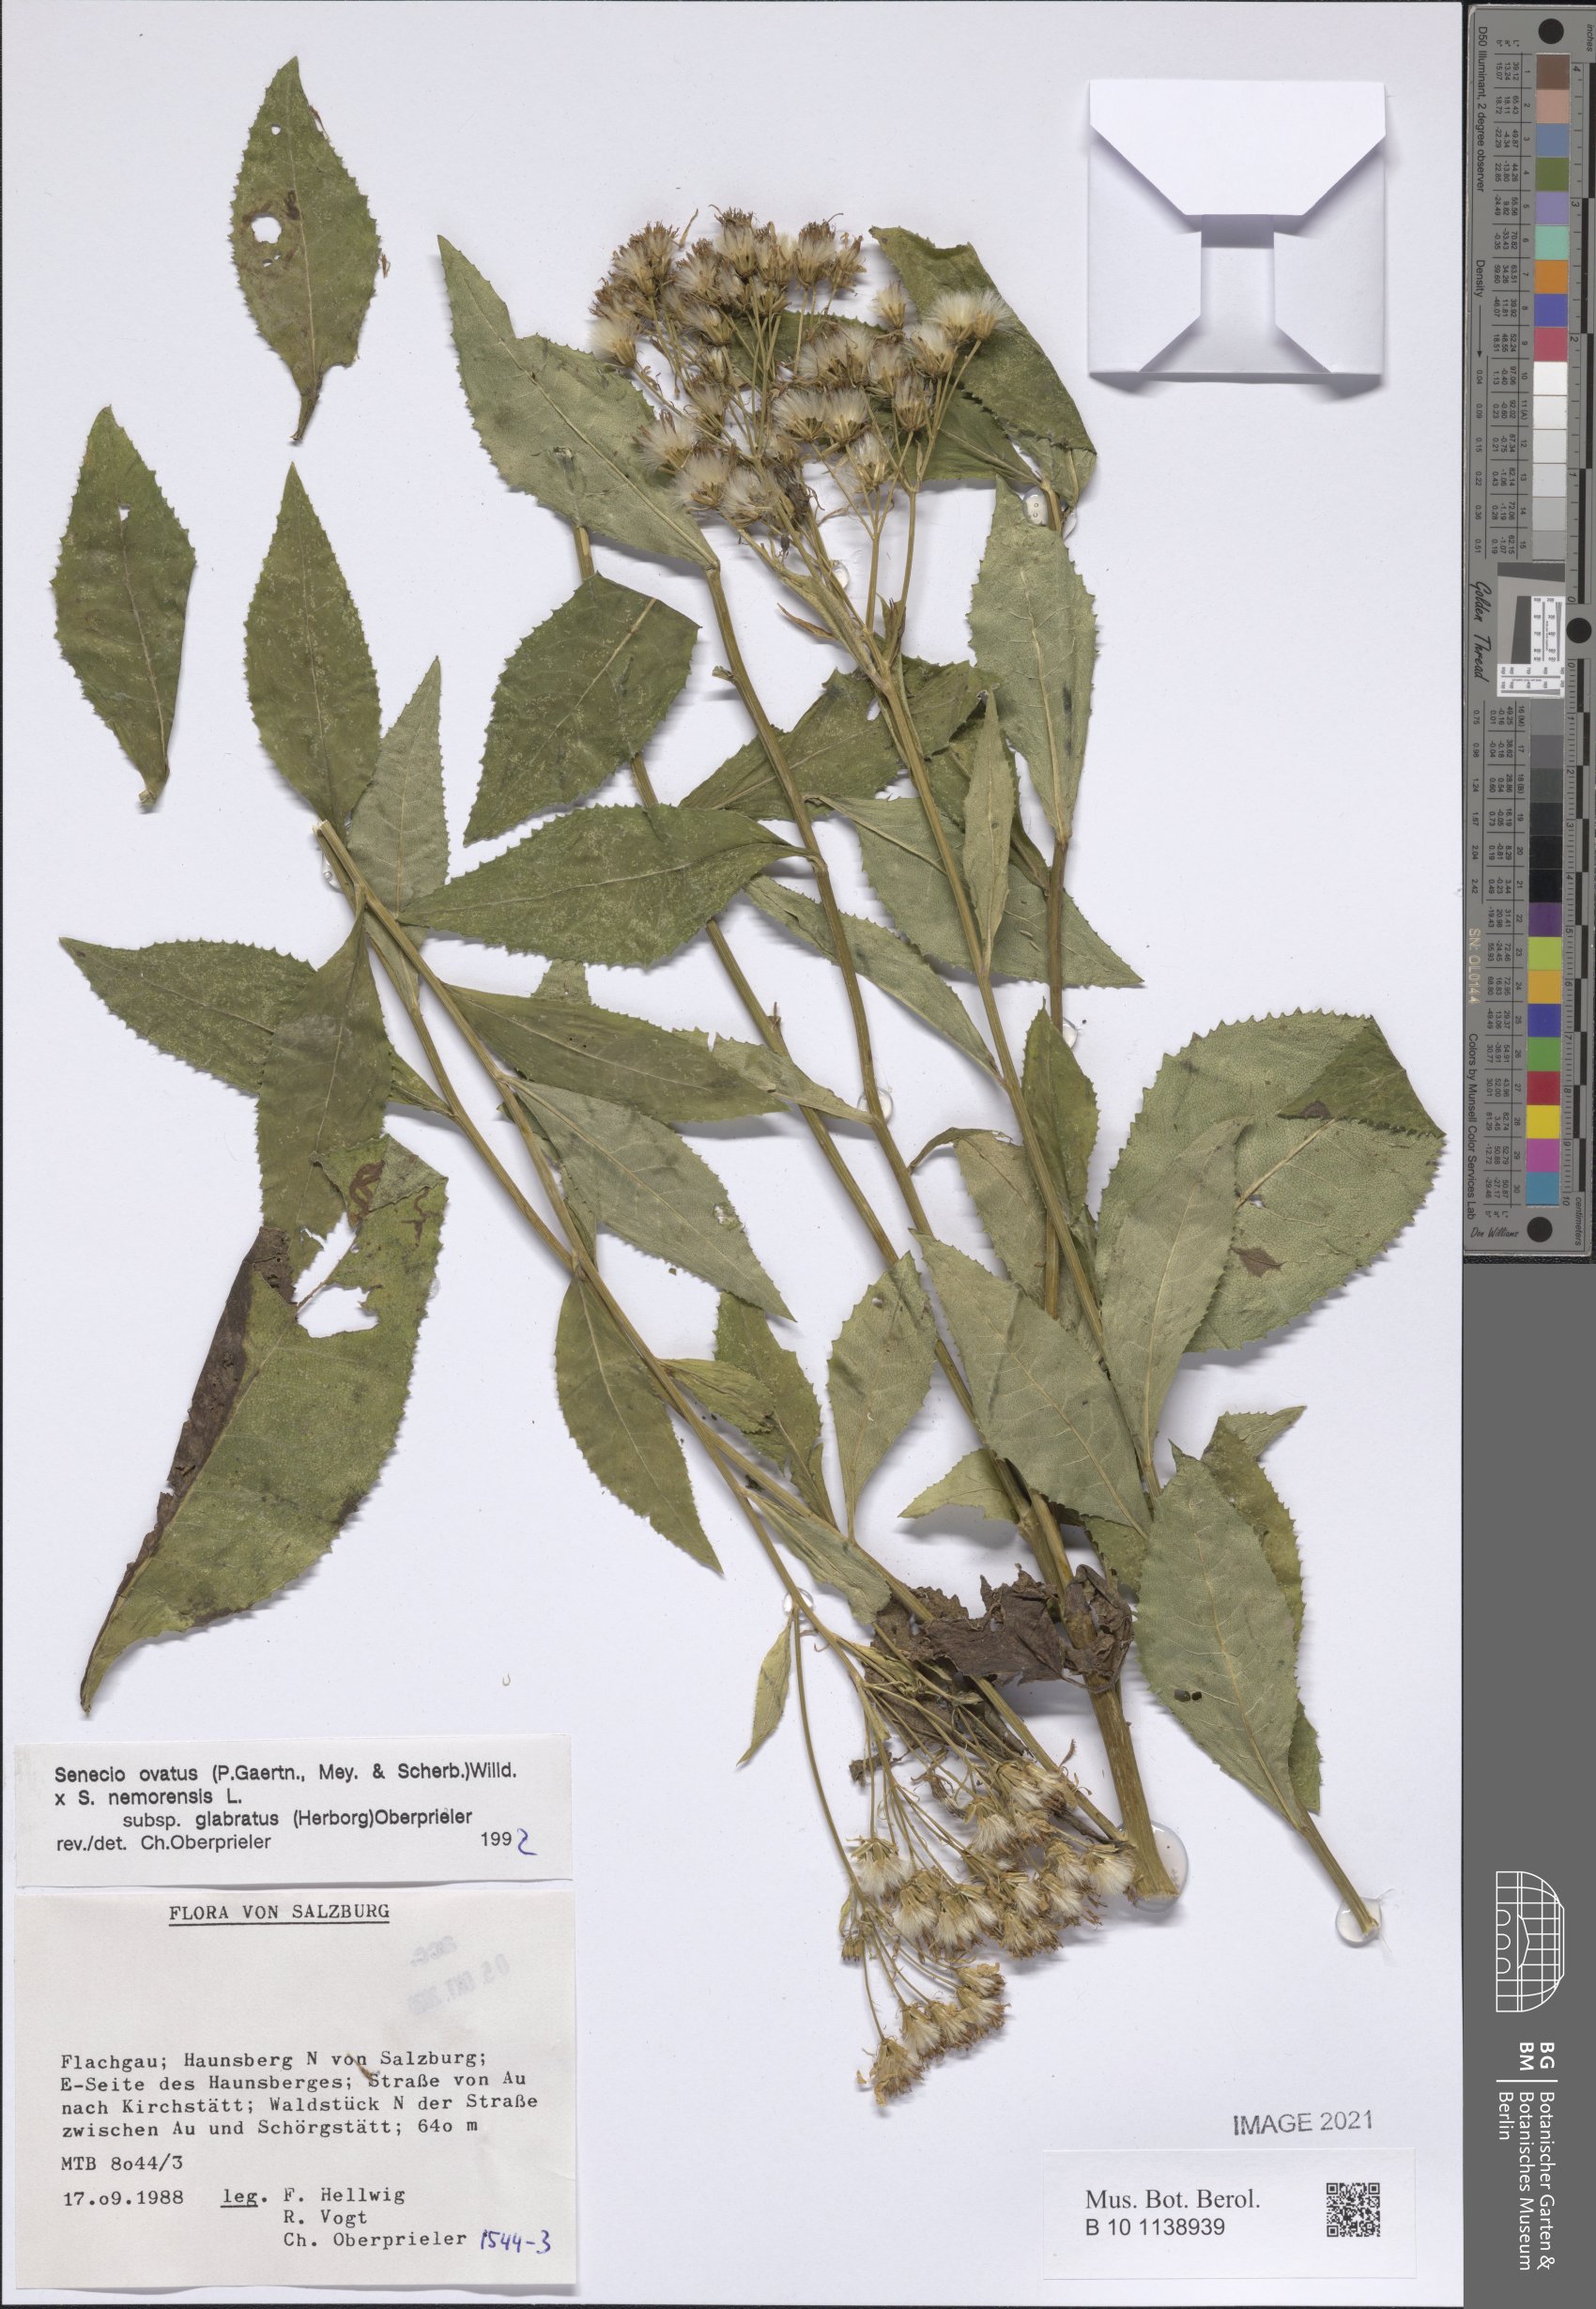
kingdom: Plantae
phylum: Tracheophyta
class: Magnoliopsida
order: Asterales
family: Asteraceae
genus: Senecio
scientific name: Senecio ovatus
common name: Wood ragwort
